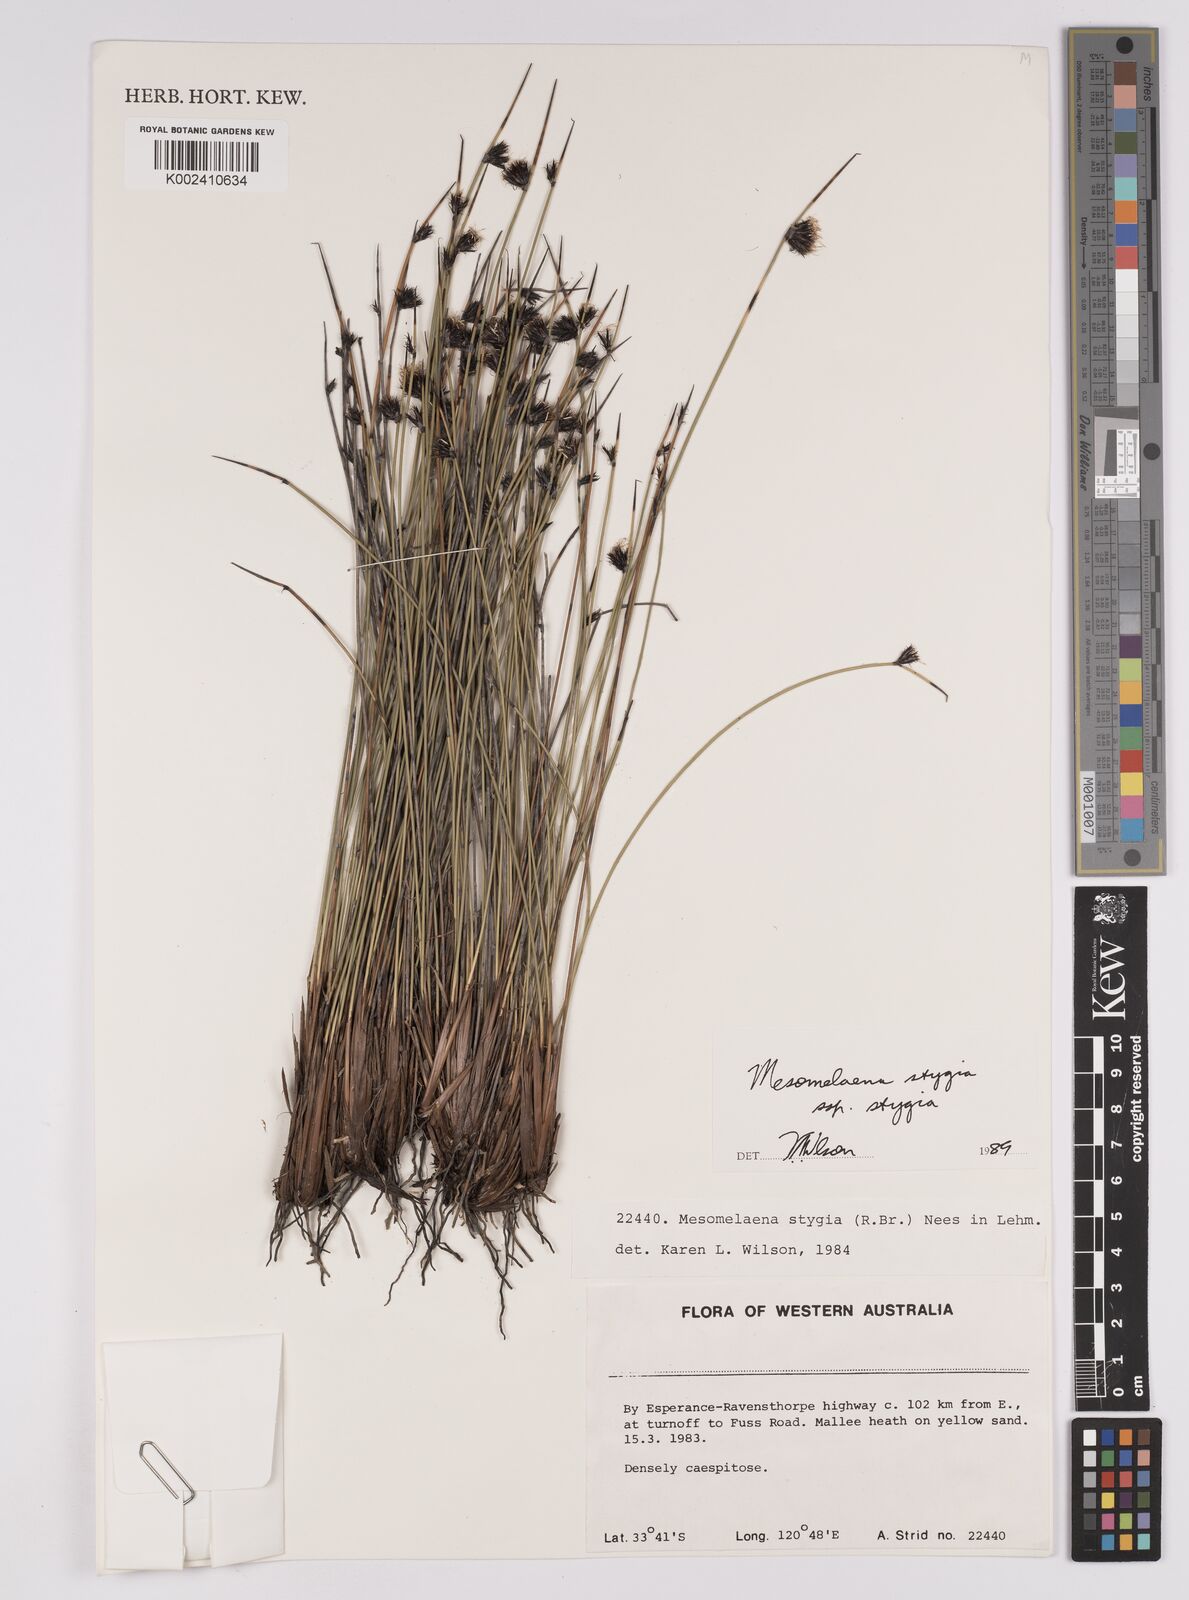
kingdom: Plantae
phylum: Tracheophyta
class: Liliopsida
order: Poales
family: Cyperaceae
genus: Mesomelaena
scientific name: Mesomelaena stygia
